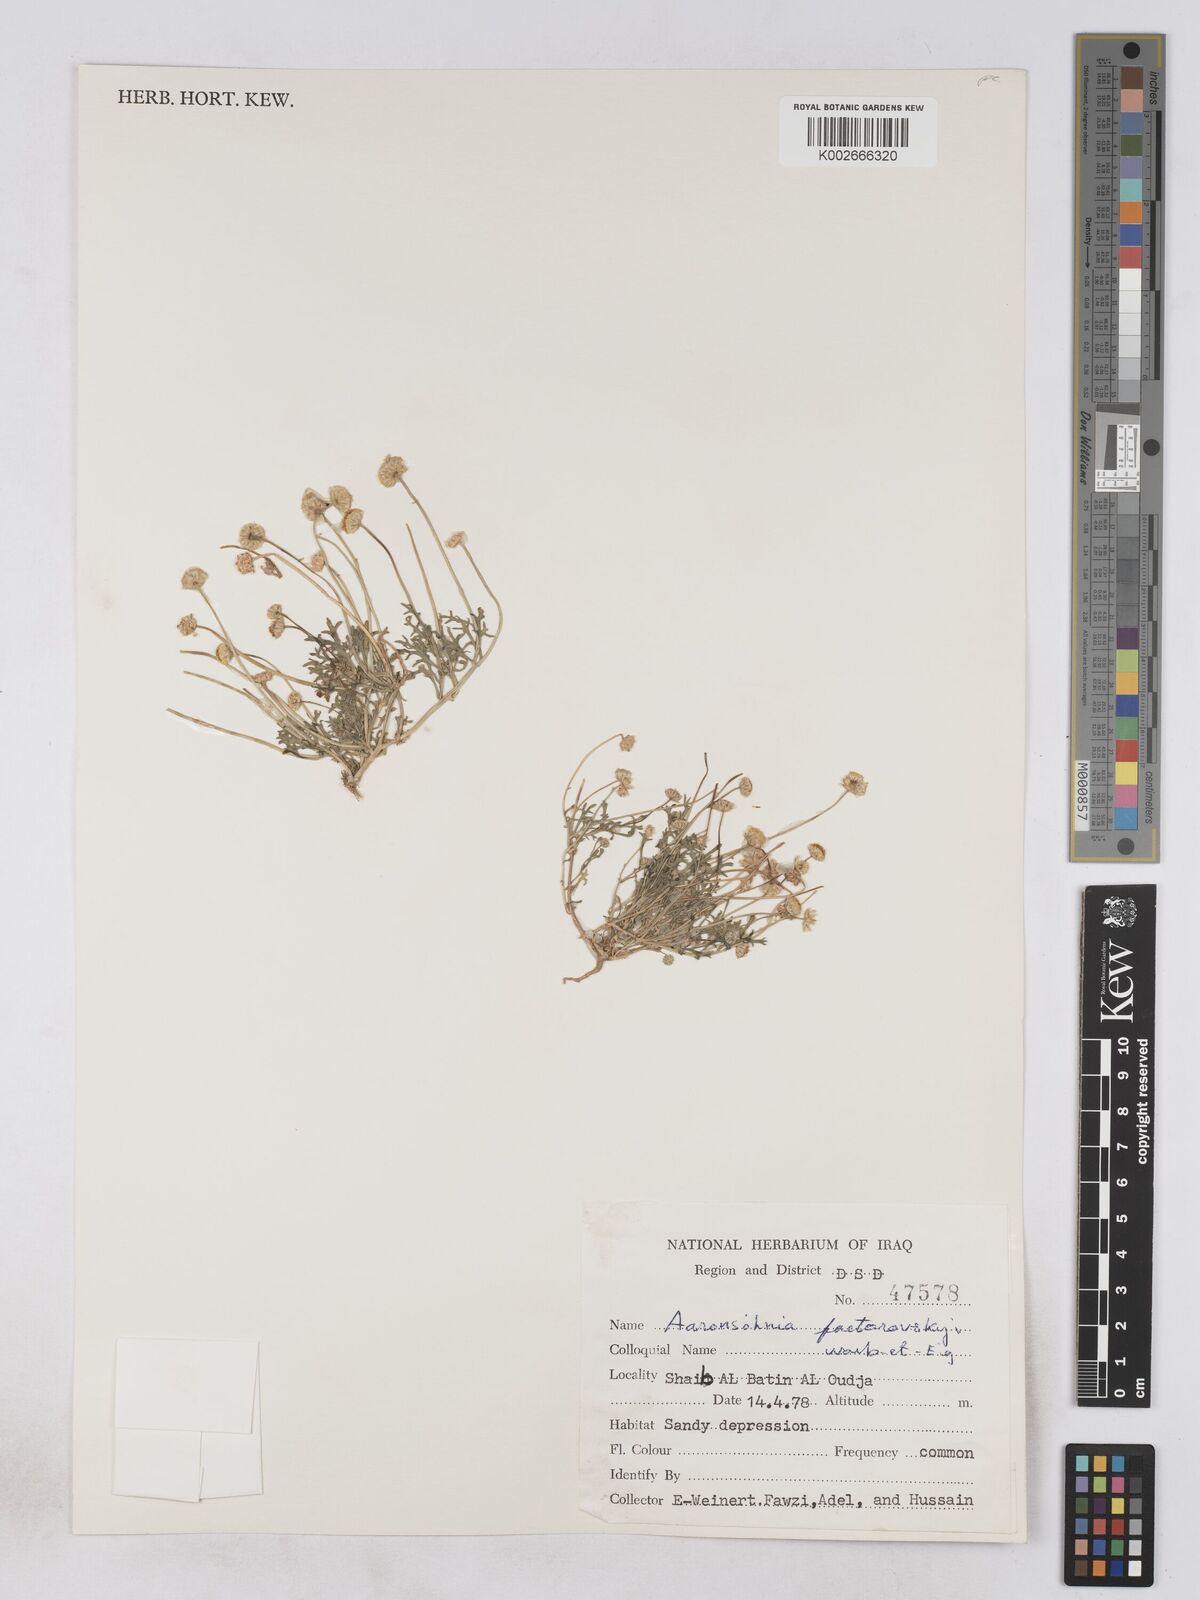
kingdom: Plantae
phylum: Tracheophyta
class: Magnoliopsida
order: Asterales
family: Asteraceae
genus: Otoglyphis
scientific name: Otoglyphis factorovskyi
